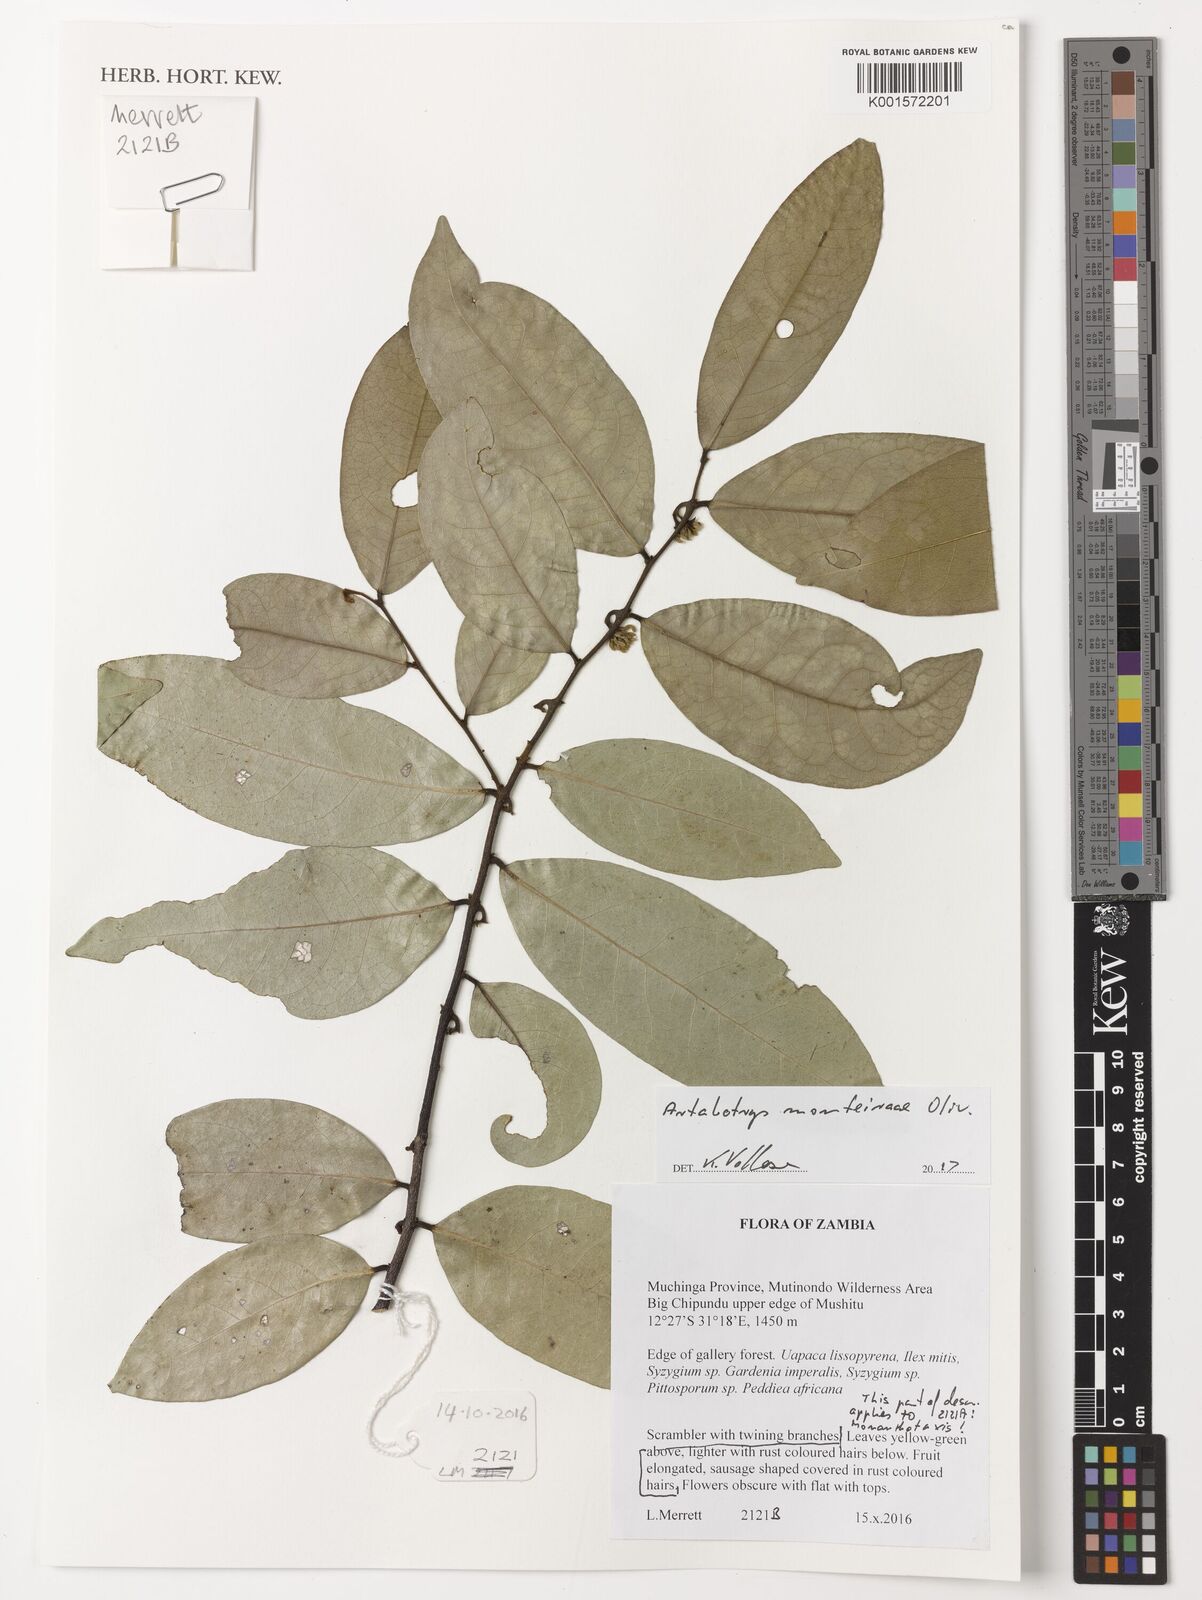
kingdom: Plantae
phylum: Tracheophyta
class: Magnoliopsida
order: Magnoliales
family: Annonaceae
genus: Artabotrys
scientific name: Artabotrys monteiroae
